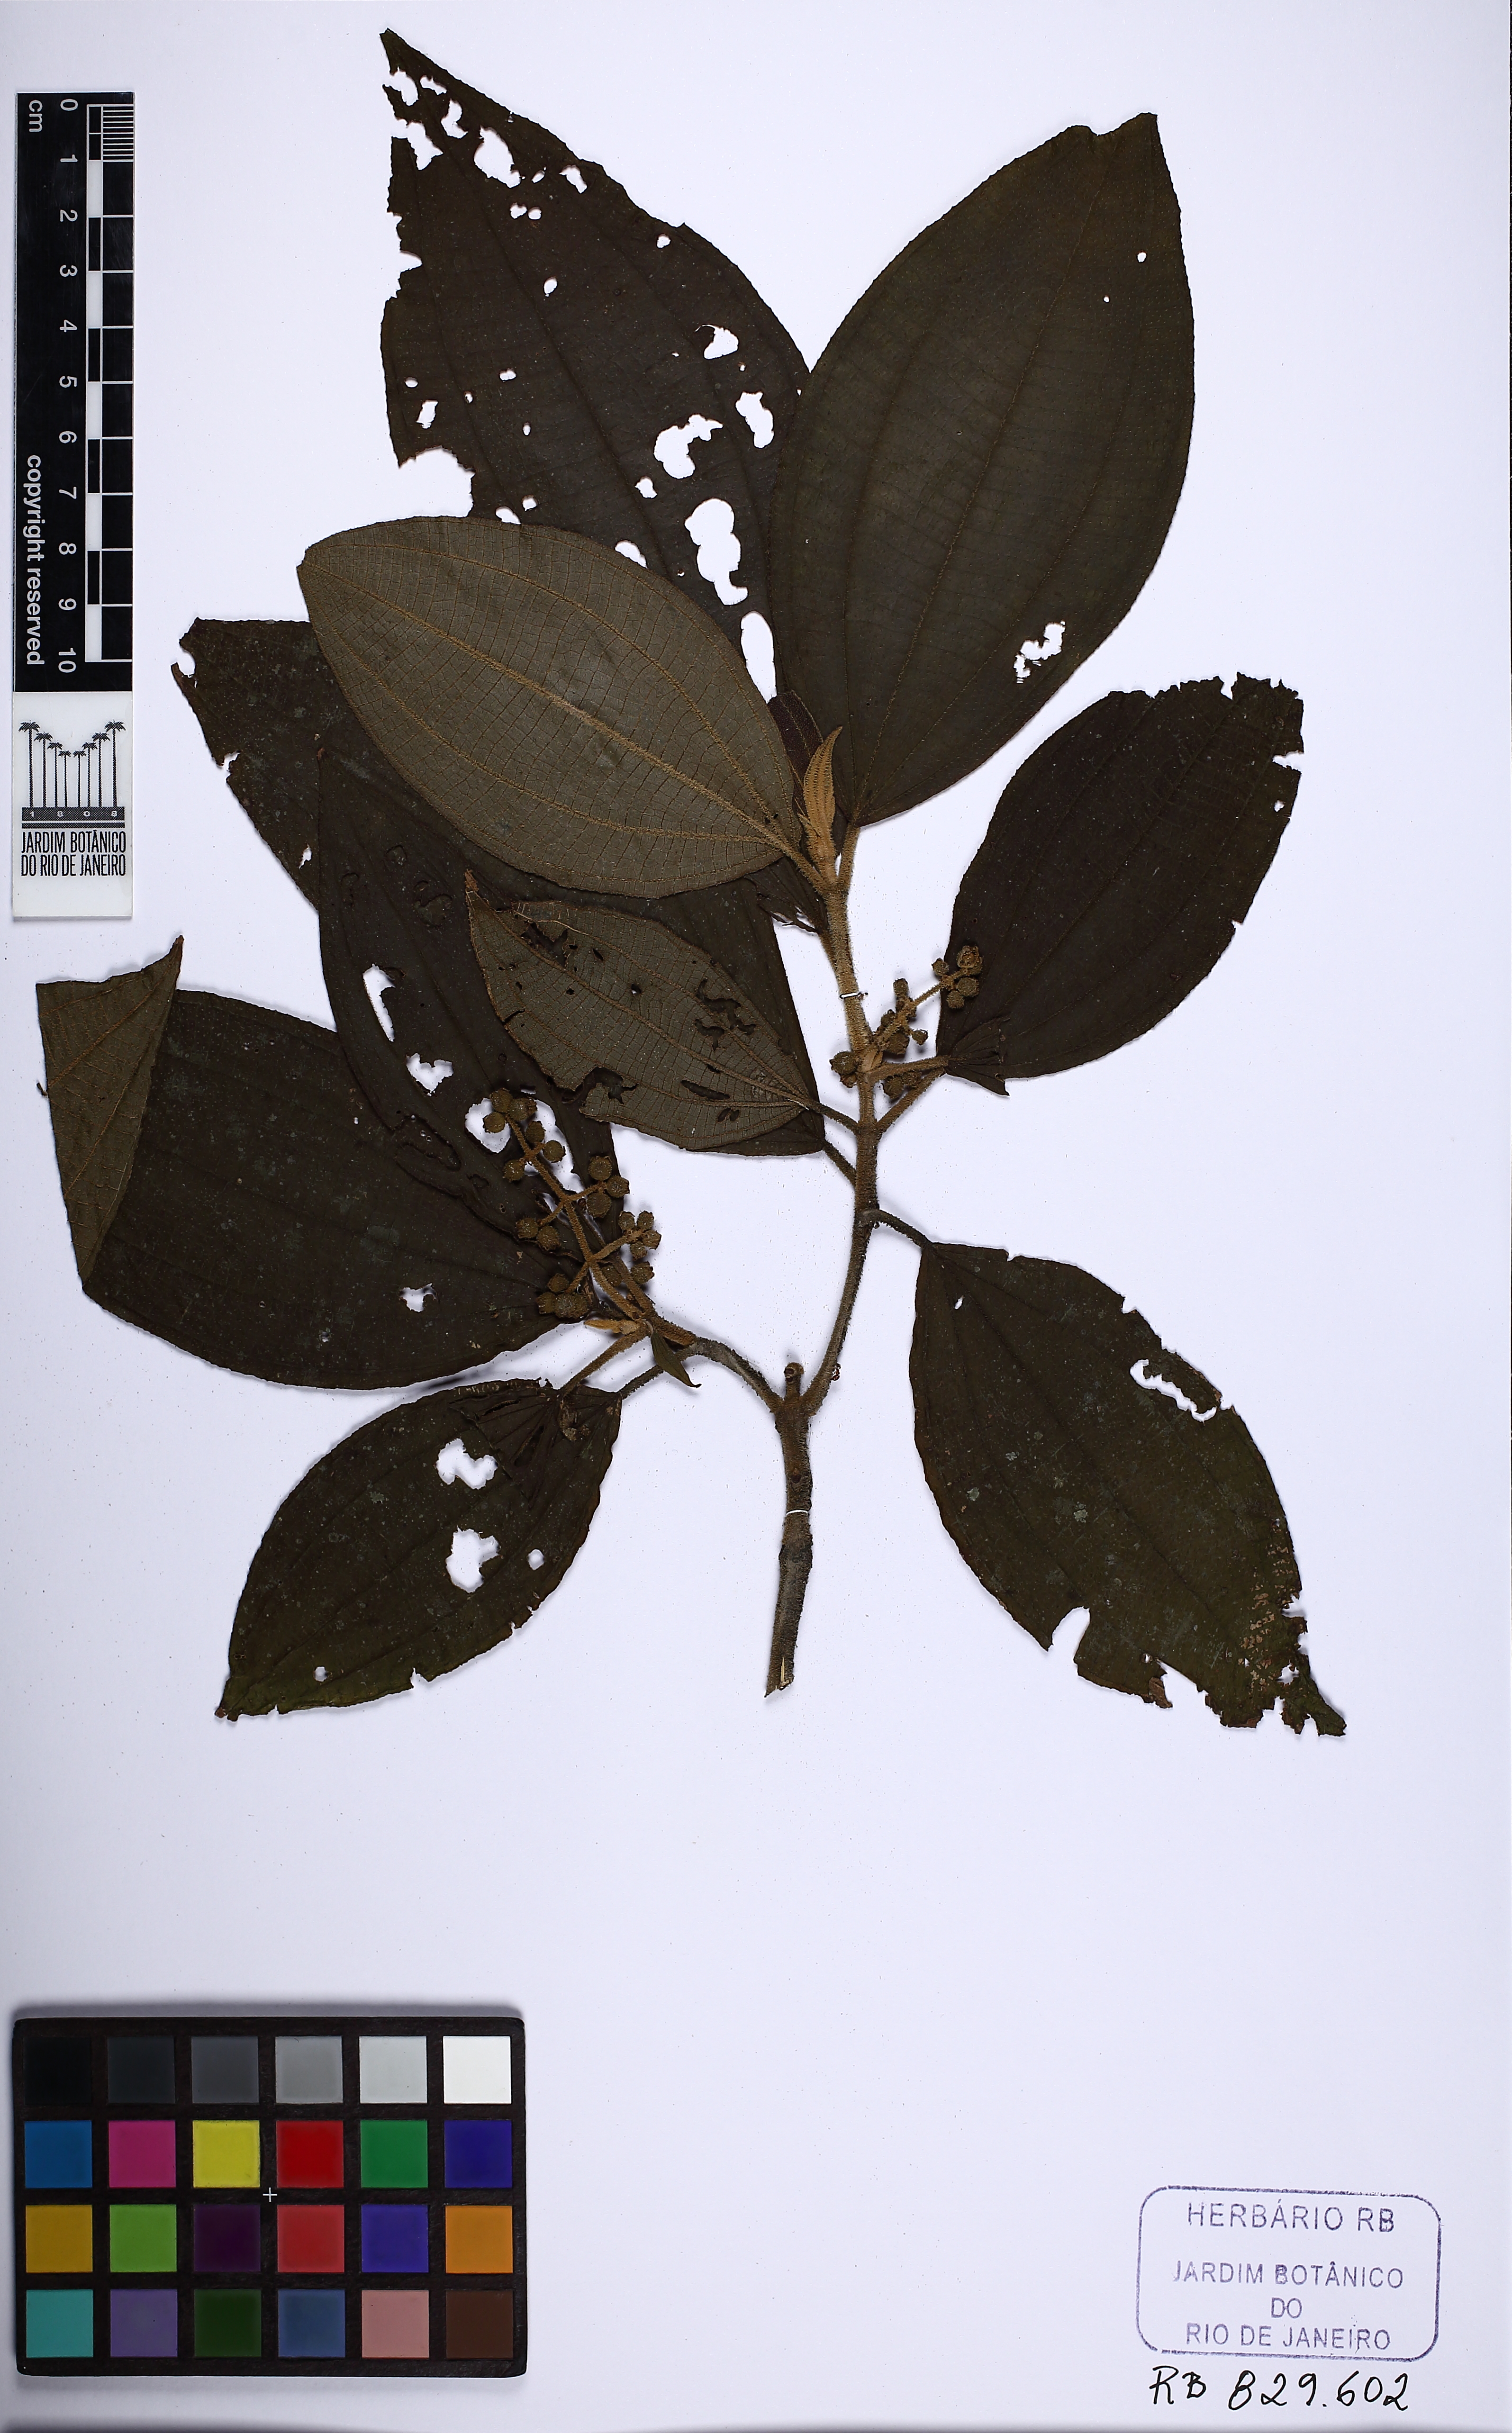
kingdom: Plantae
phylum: Tracheophyta
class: Magnoliopsida
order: Myrtales
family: Melastomataceae
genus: Miconia
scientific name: Miconia dasytricha
